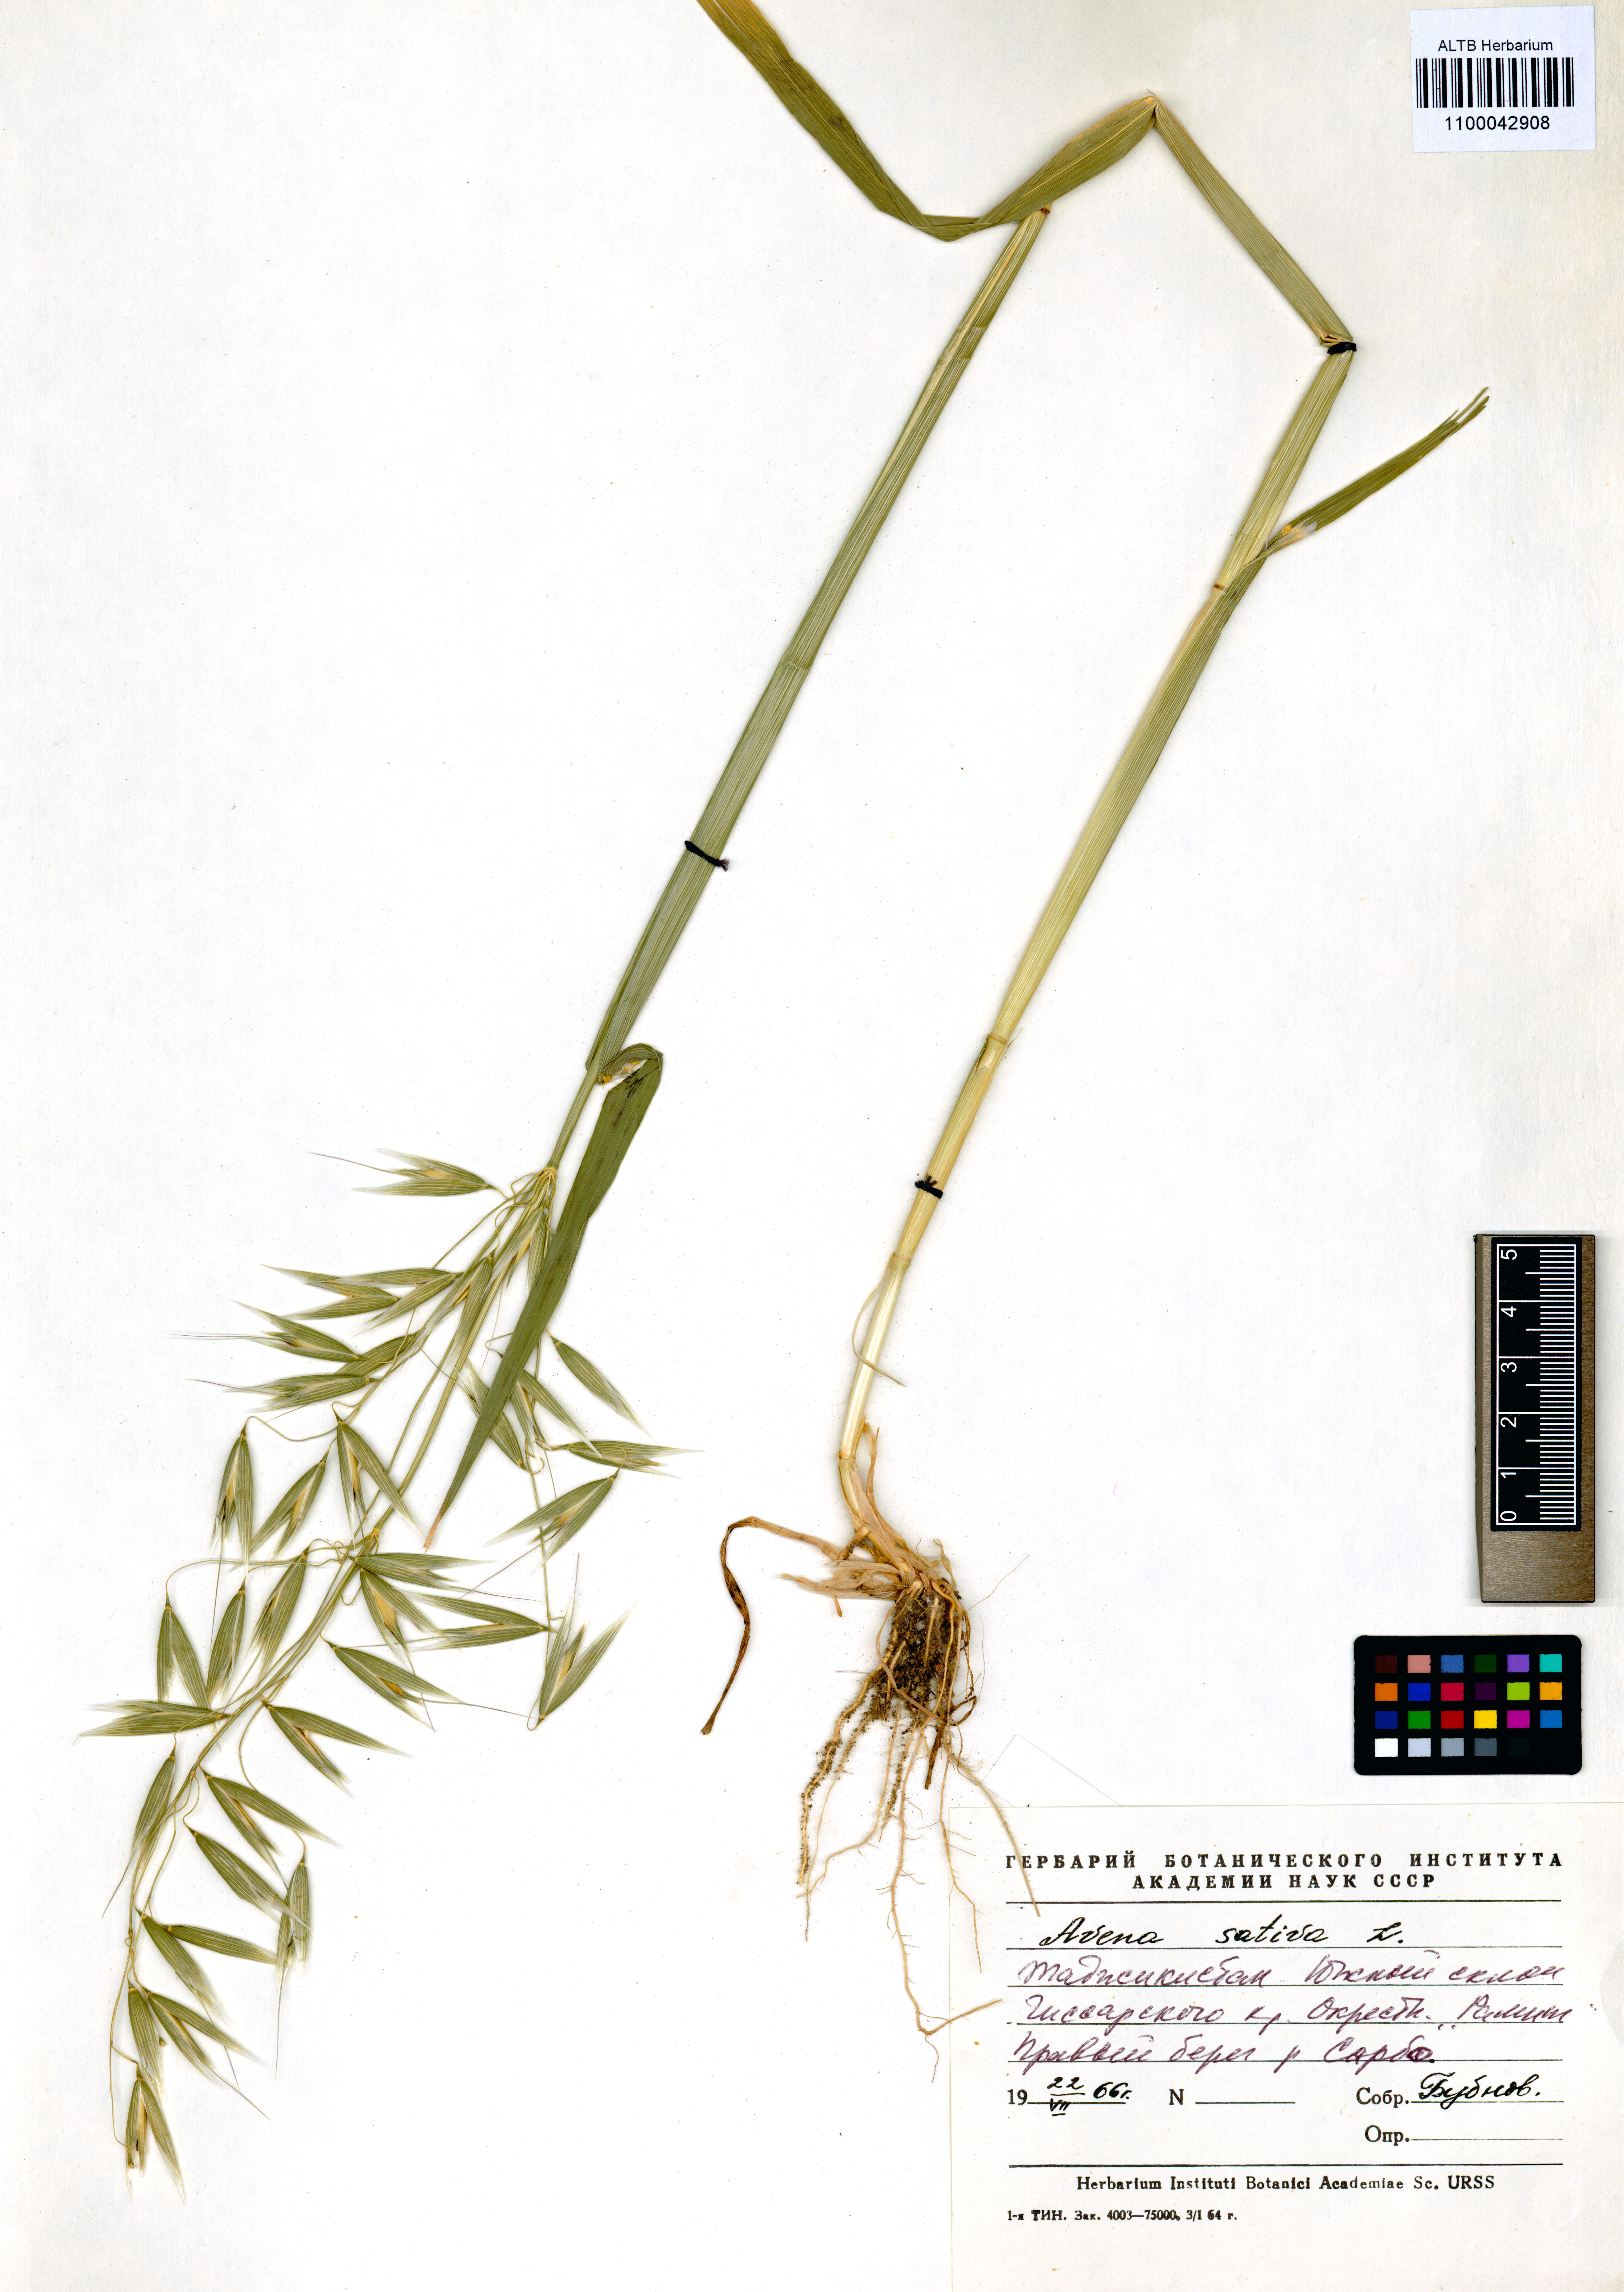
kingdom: Plantae
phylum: Tracheophyta
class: Liliopsida
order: Poales
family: Poaceae
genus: Avena
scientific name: Avena sativa
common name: Oat
